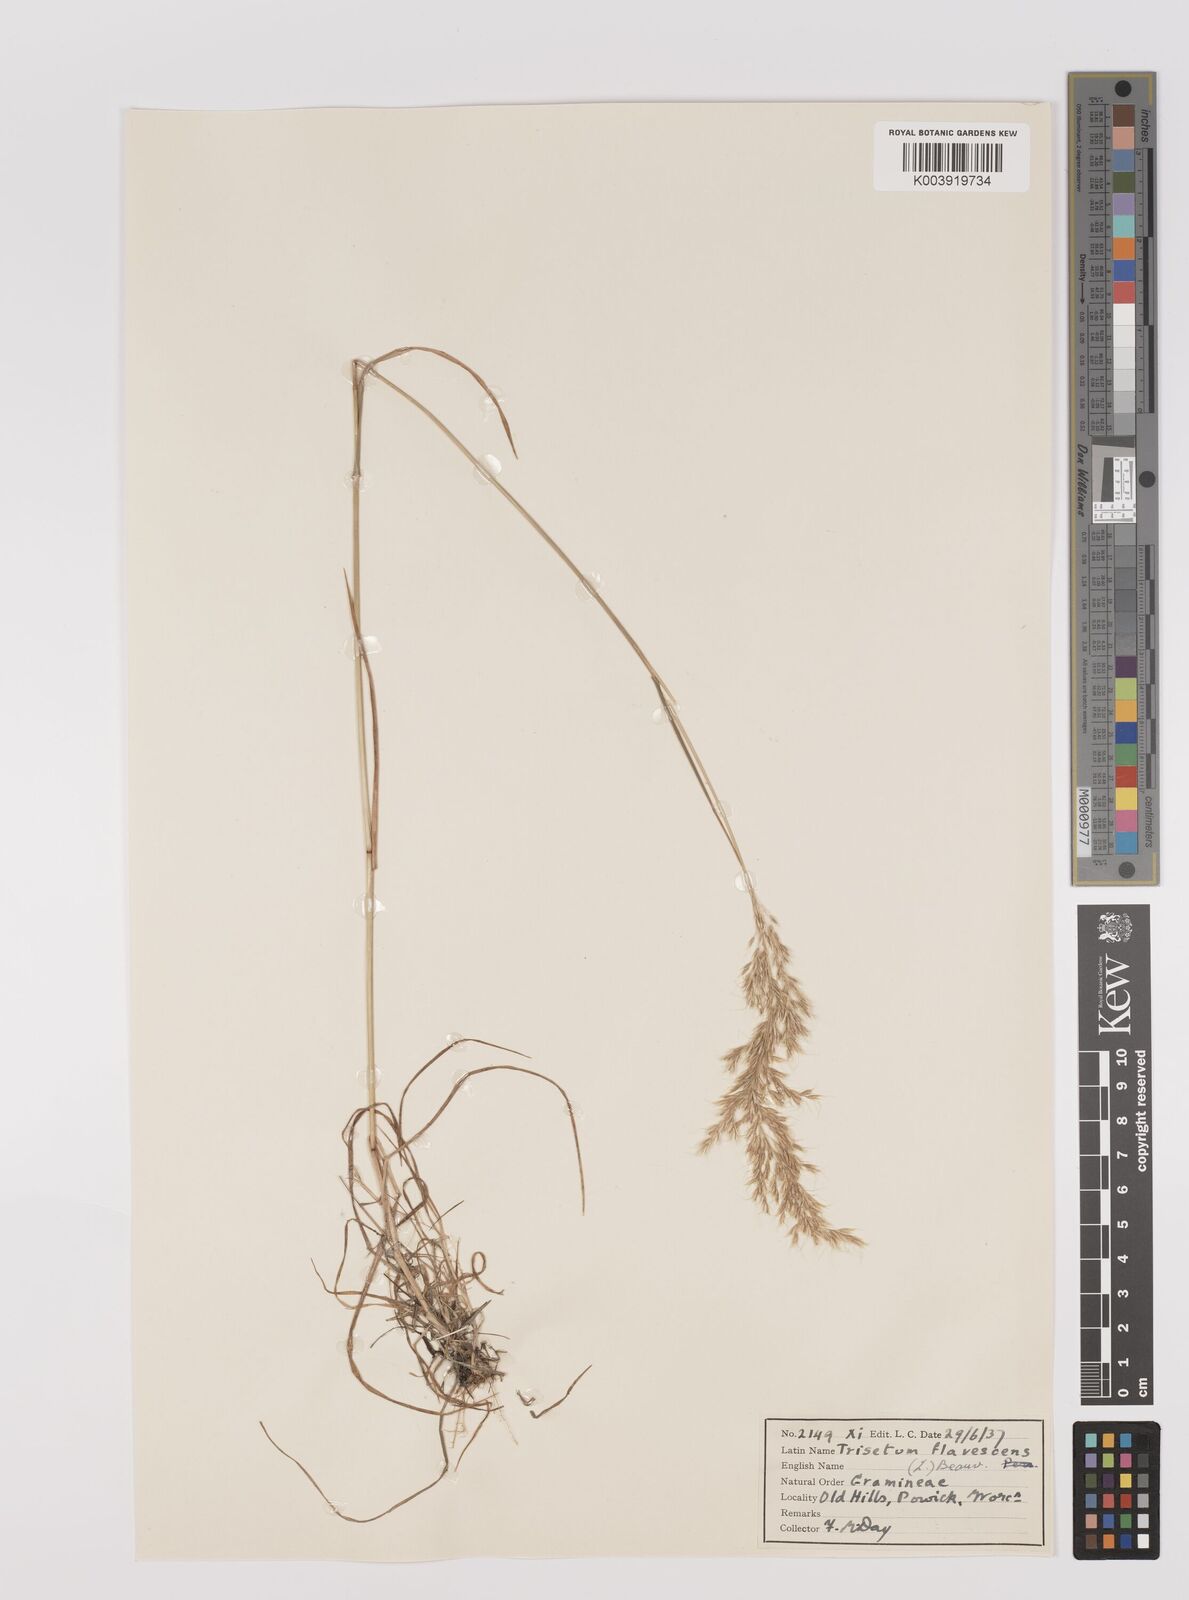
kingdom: Plantae
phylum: Tracheophyta
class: Liliopsida
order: Poales
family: Poaceae
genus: Trisetum
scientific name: Trisetum flavescens
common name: Yellow oat-grass
